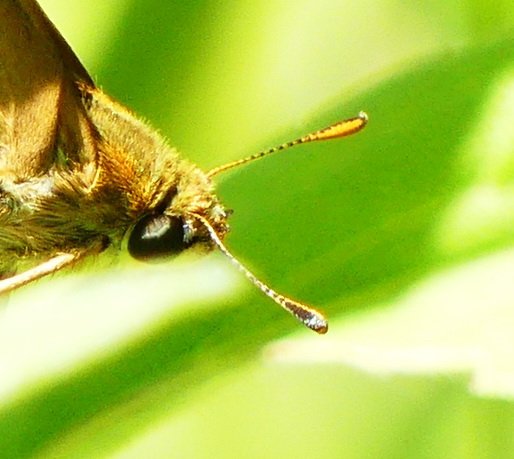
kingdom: Animalia
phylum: Arthropoda
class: Insecta
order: Lepidoptera
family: Hesperiidae
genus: Polites
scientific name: Polites
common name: Crossline Skipper
